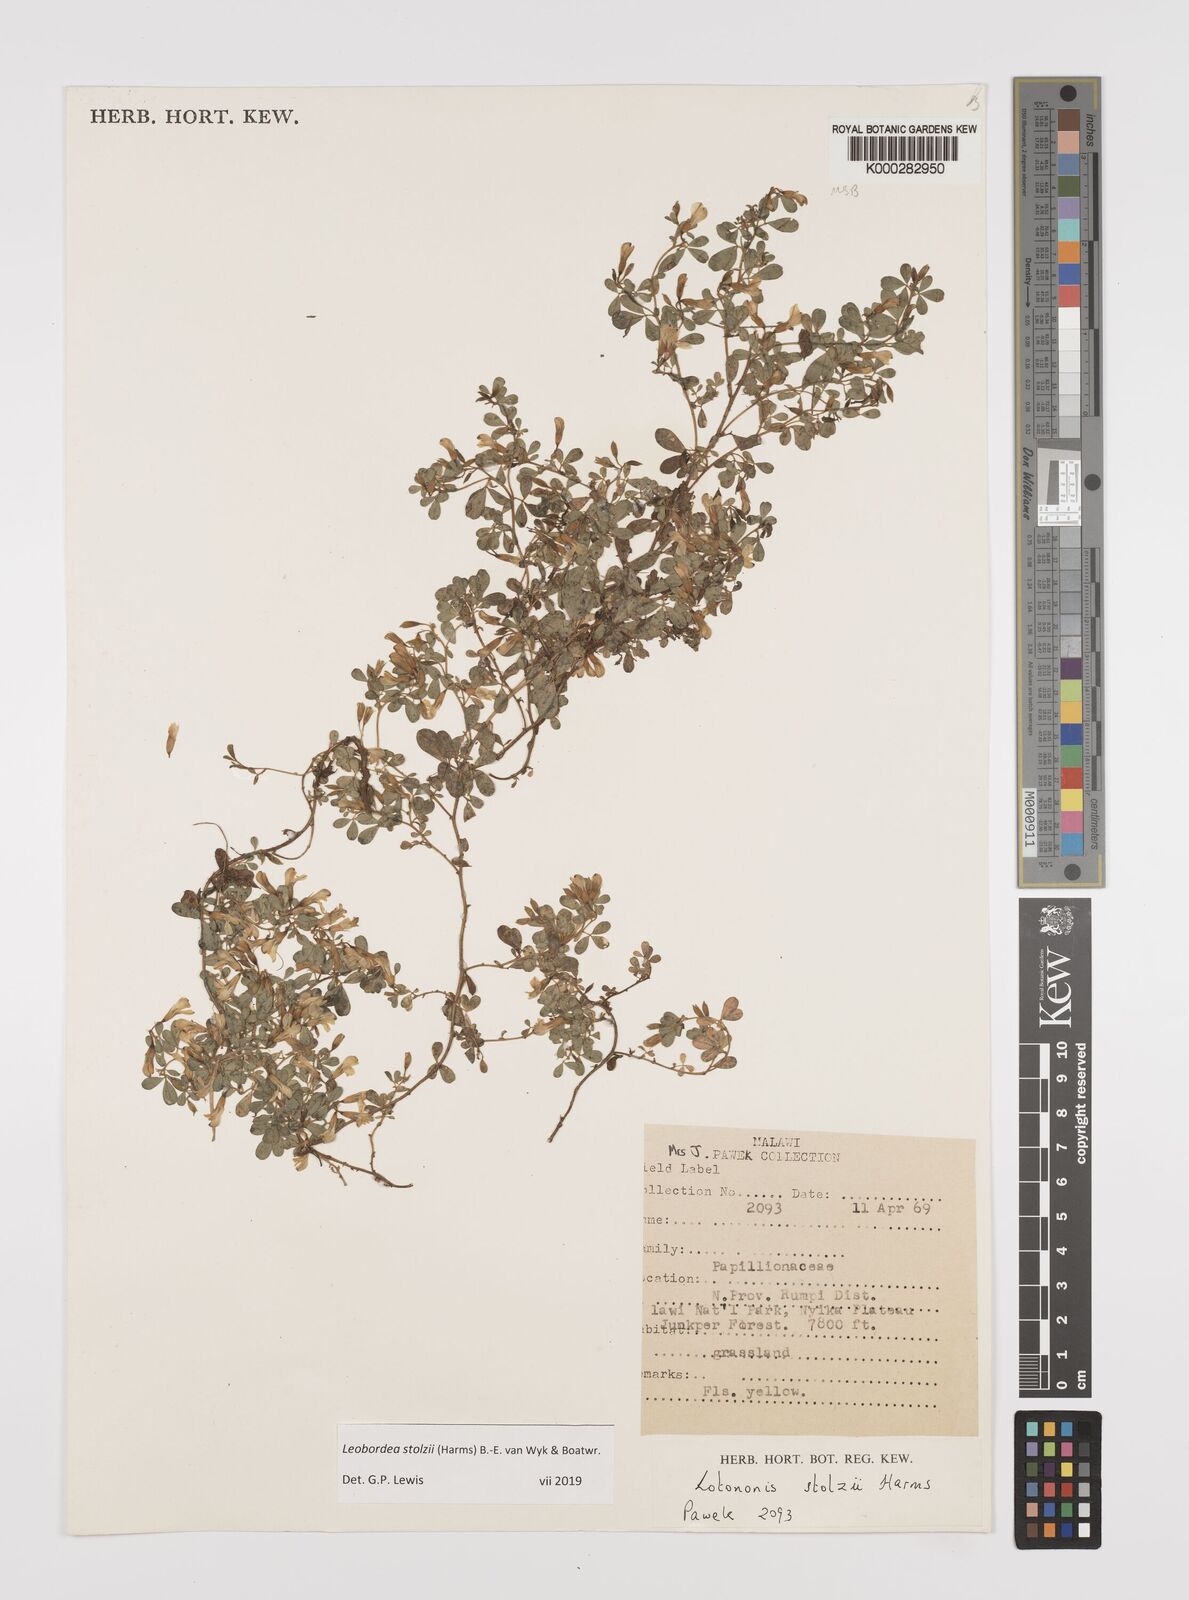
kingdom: Plantae
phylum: Tracheophyta
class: Magnoliopsida
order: Fabales
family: Fabaceae
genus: Leobordea
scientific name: Leobordea stolzii
